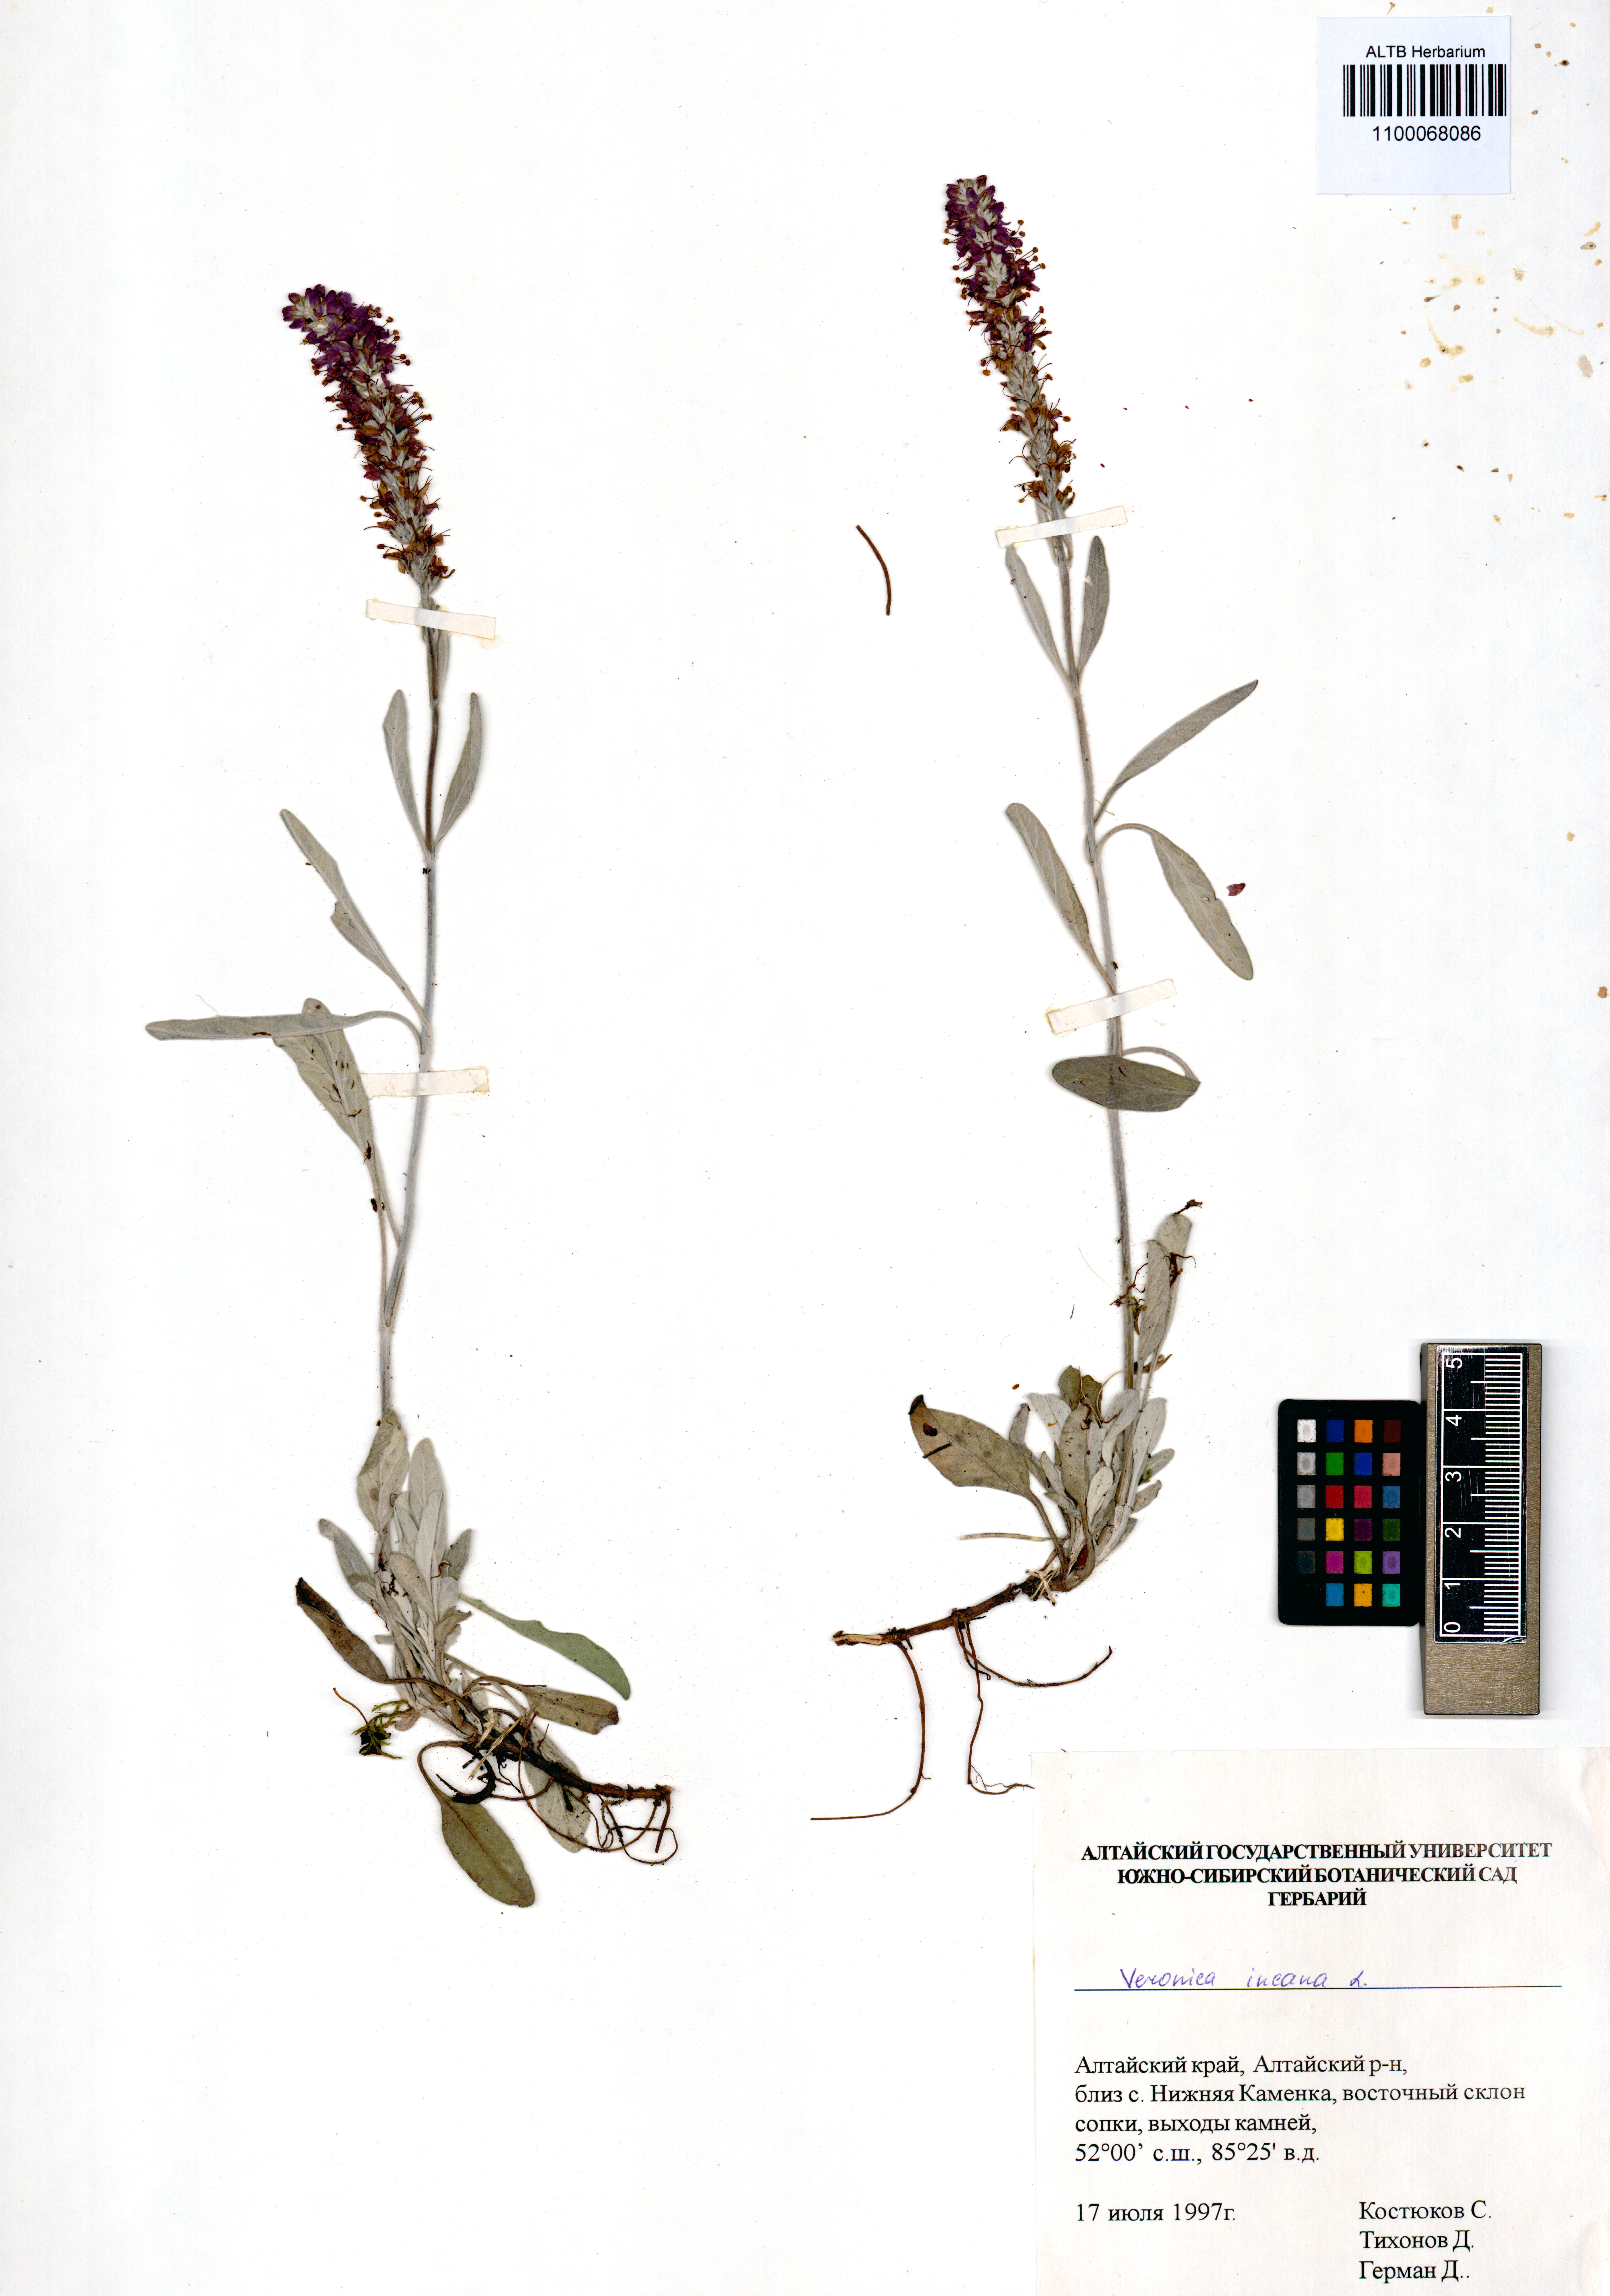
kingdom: Plantae
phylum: Tracheophyta
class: Magnoliopsida
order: Lamiales
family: Plantaginaceae
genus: Veronica
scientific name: Veronica incana
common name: Silver speedwell
